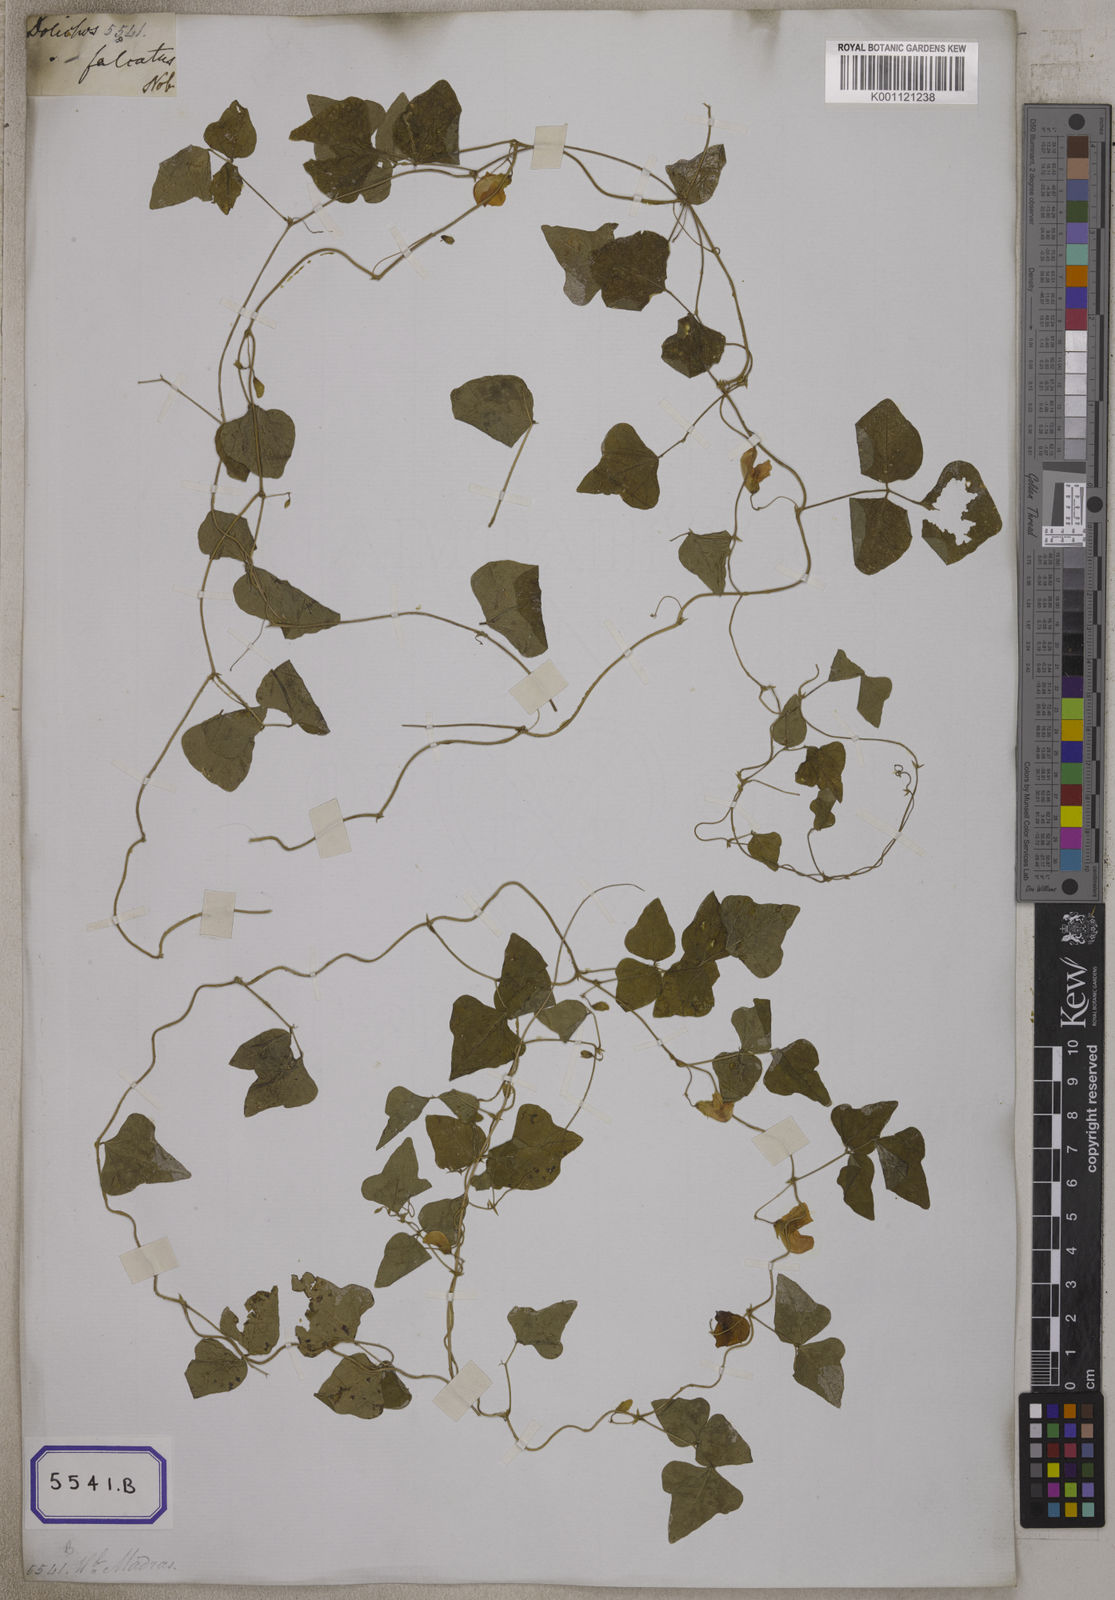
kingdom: Plantae
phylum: Tracheophyta
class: Magnoliopsida
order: Fabales
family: Fabaceae
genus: Dolichos
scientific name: Dolichos
